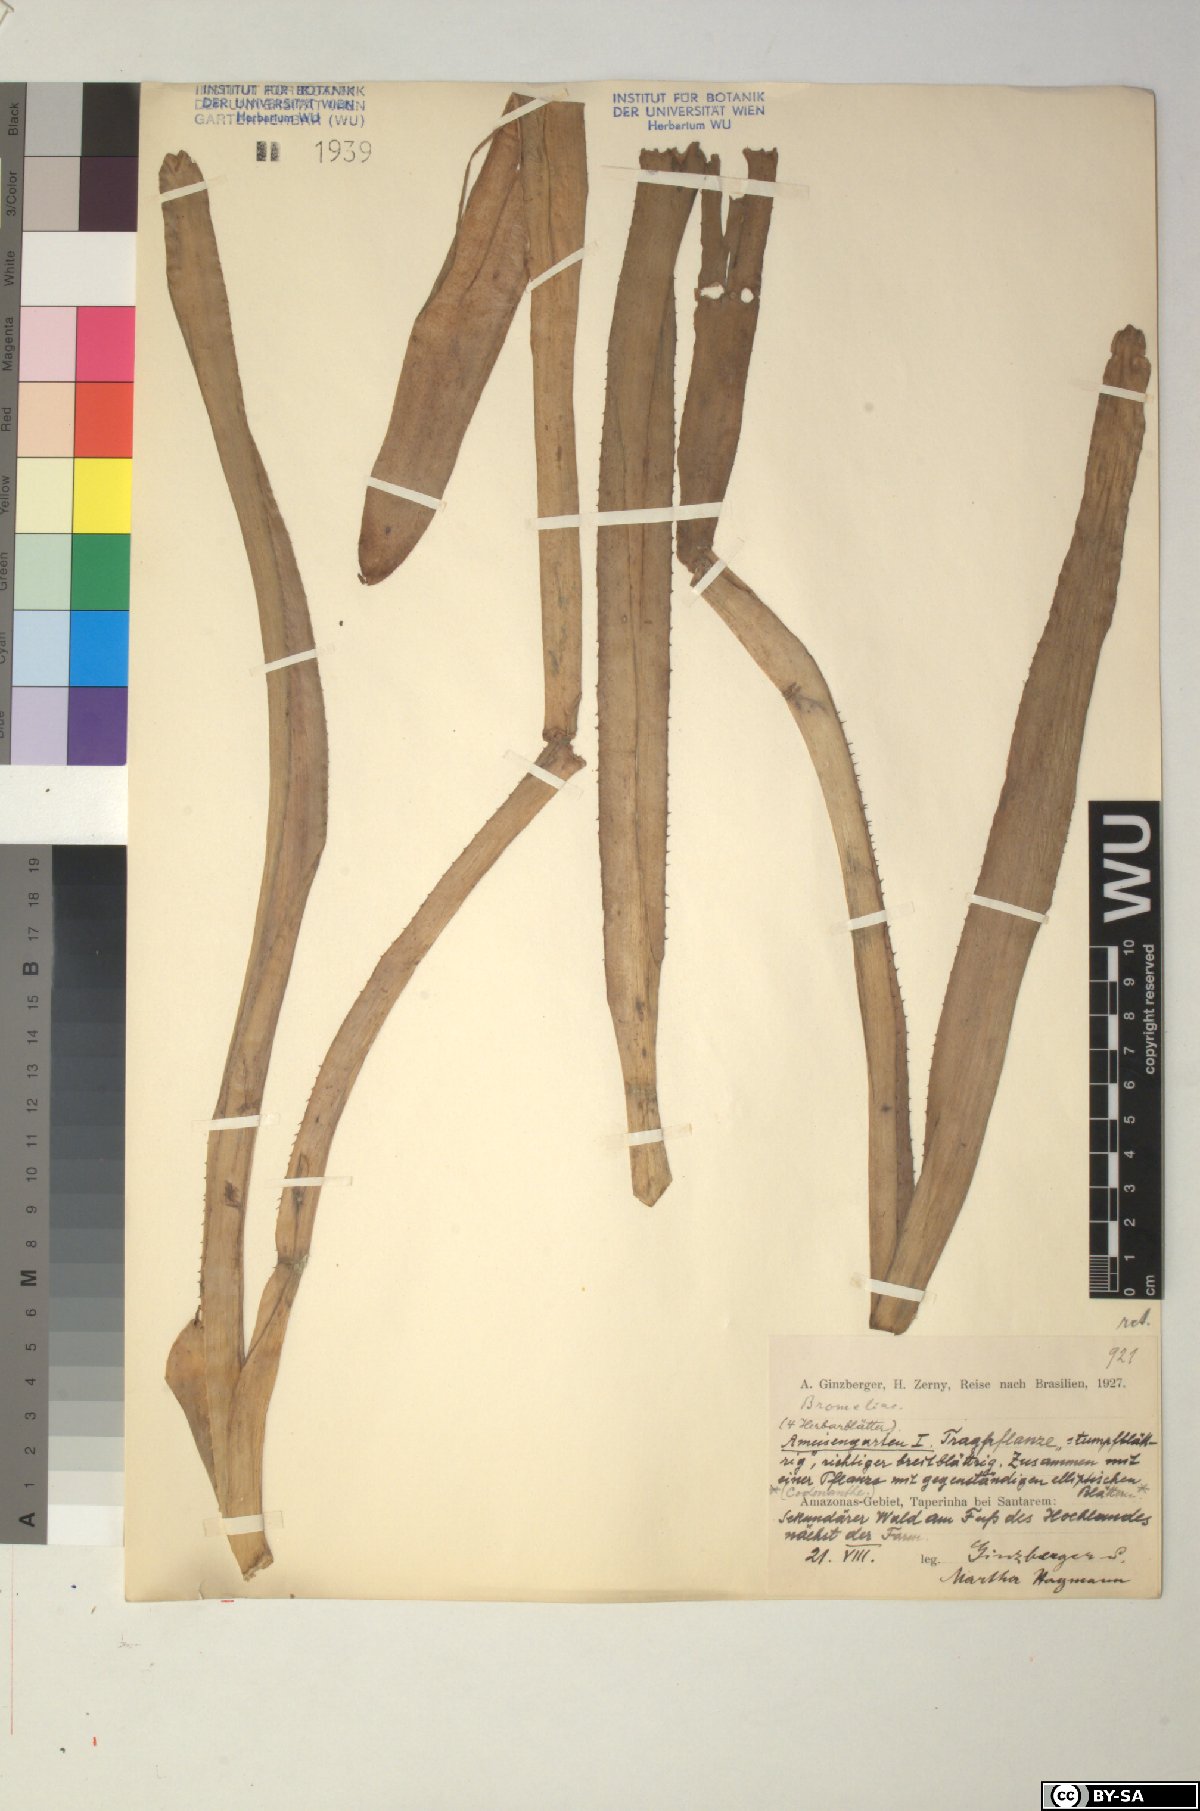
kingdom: Plantae
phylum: Tracheophyta
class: Liliopsida
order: Poales
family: Bromeliaceae
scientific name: Bromeliaceae
